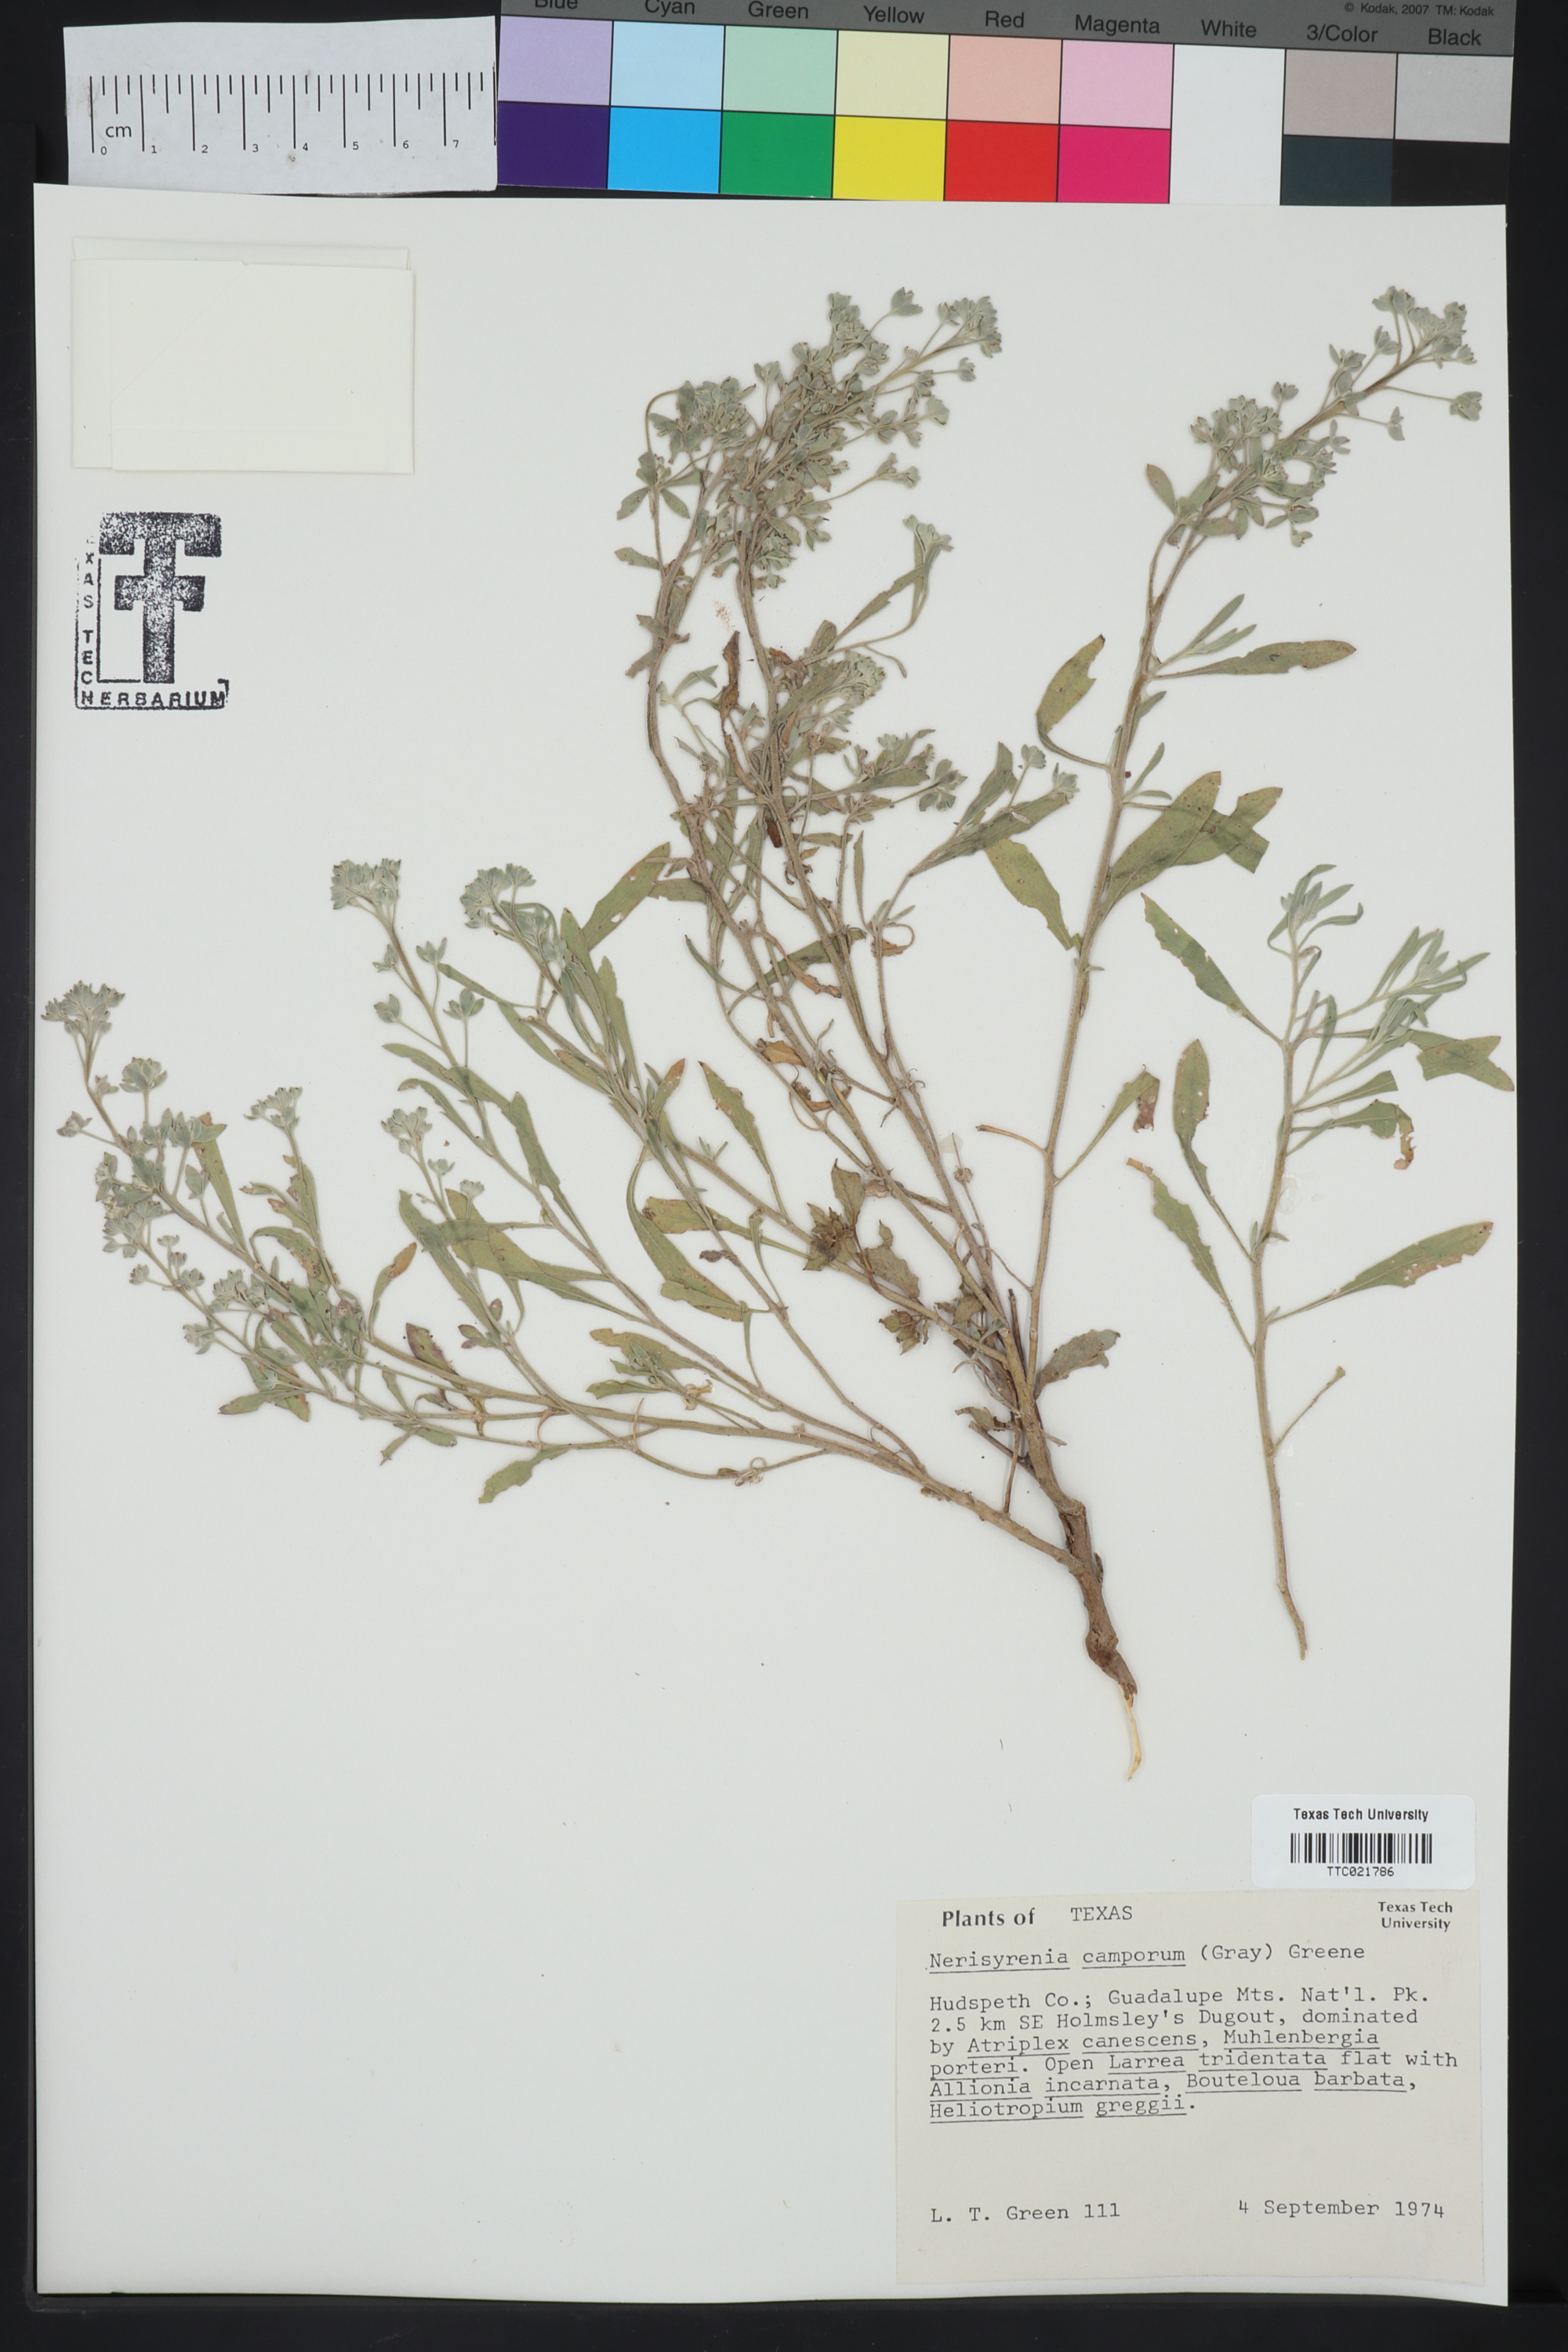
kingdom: Plantae
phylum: Tracheophyta
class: Magnoliopsida
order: Brassicales
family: Brassicaceae
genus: Nerisyrenia
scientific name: Nerisyrenia camporum
